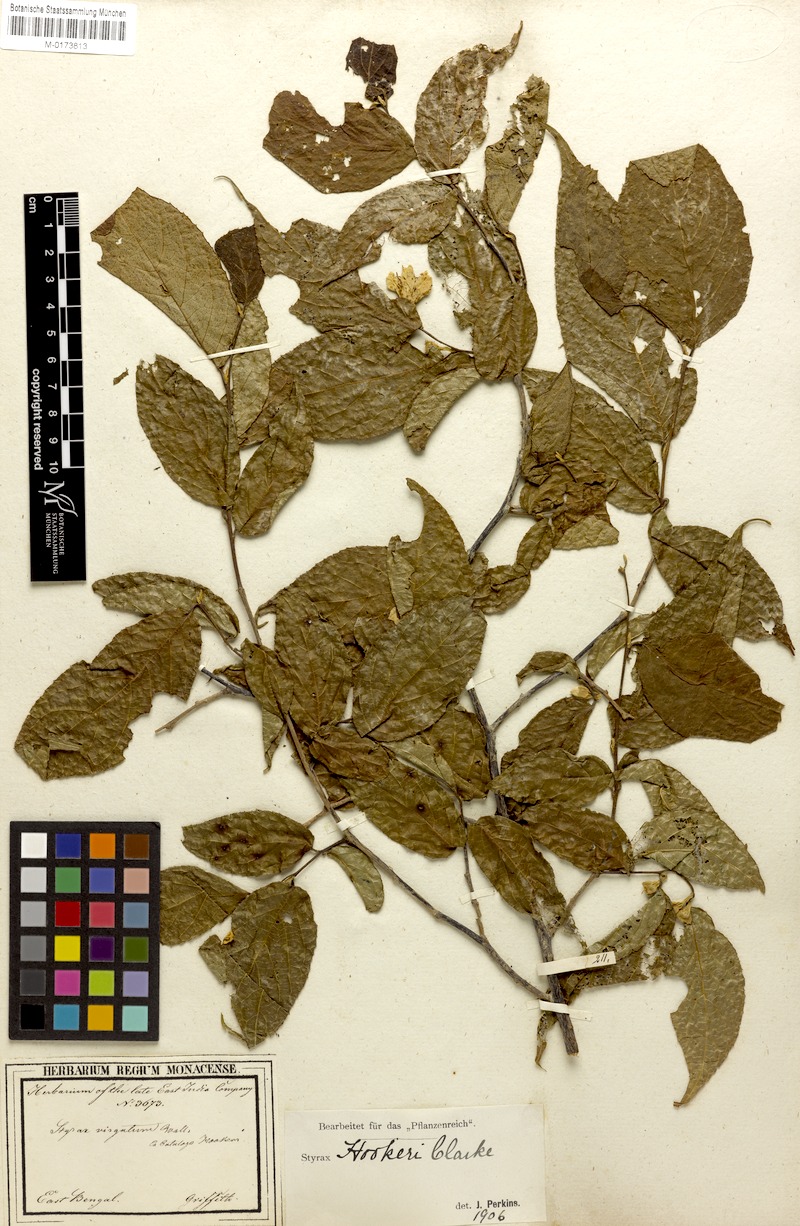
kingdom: Plantae
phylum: Tracheophyta
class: Magnoliopsida
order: Ericales
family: Styracaceae
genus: Styrax
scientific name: Styrax hookeri
